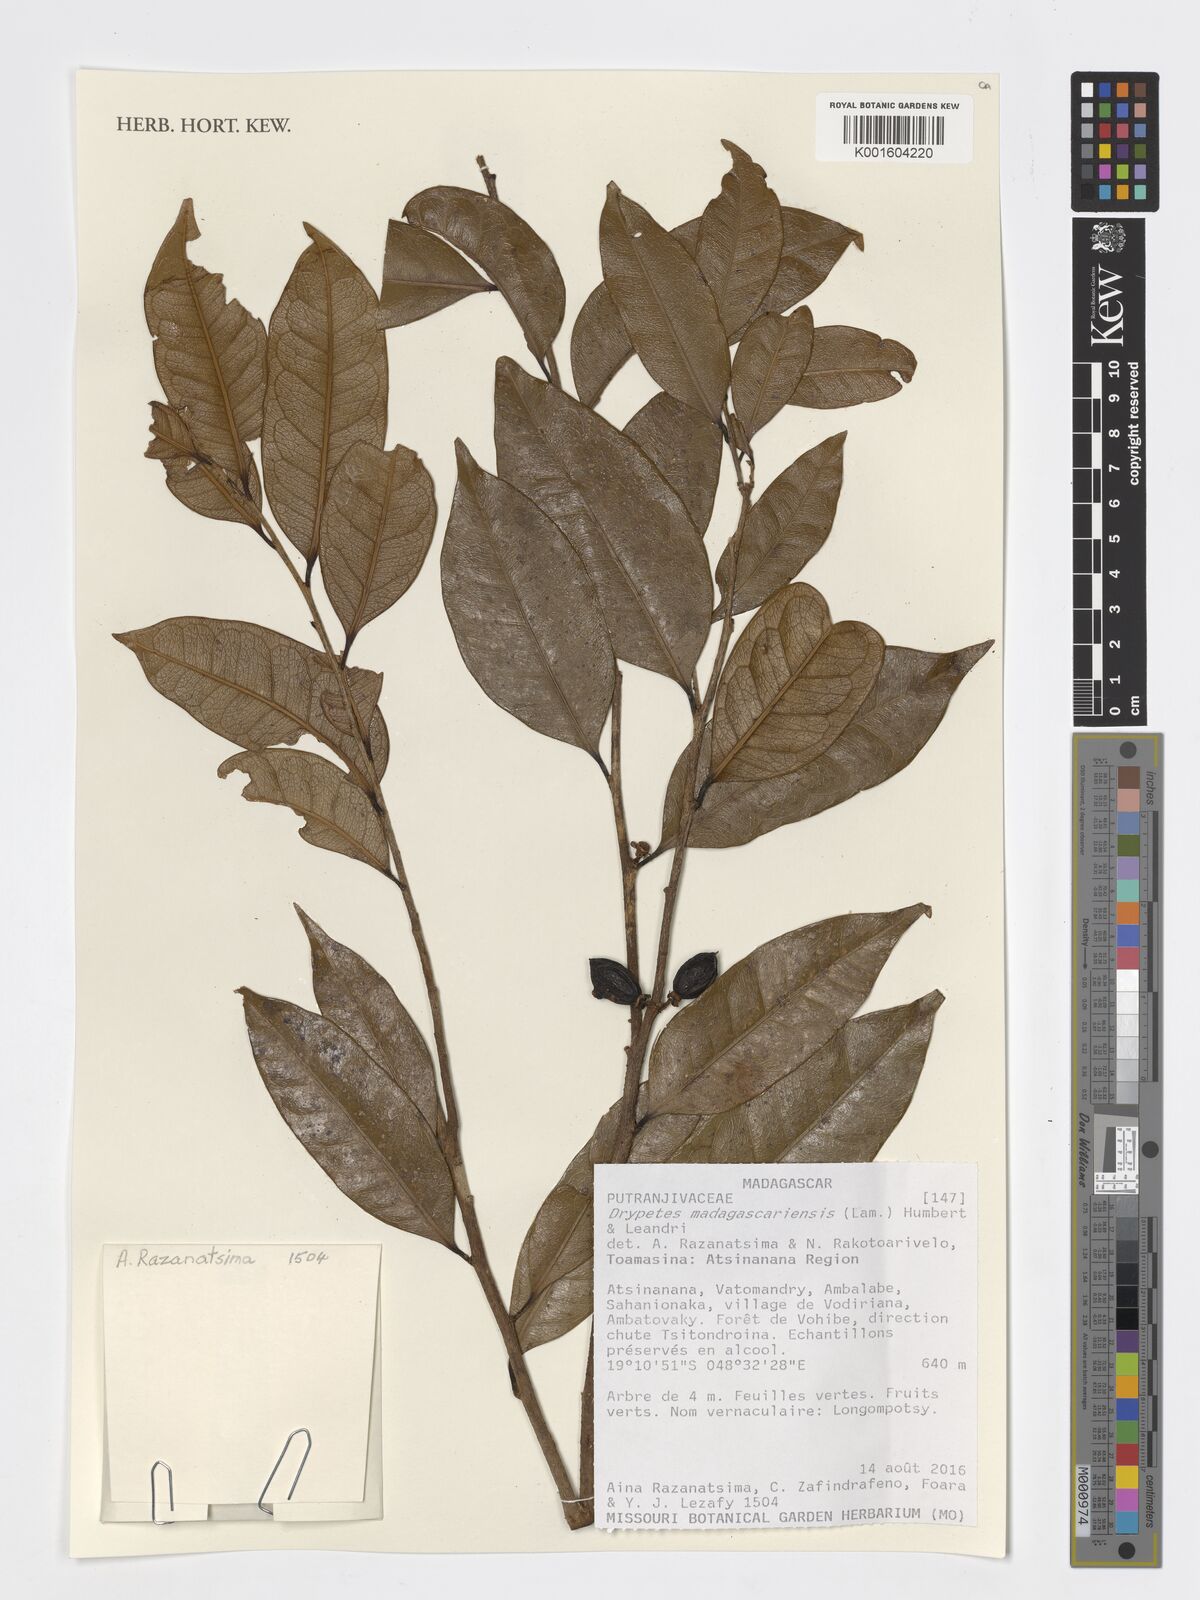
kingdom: Plantae
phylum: Tracheophyta
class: Magnoliopsida
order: Malpighiales
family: Putranjivaceae
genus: Drypetes
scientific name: Drypetes madagascariensis
